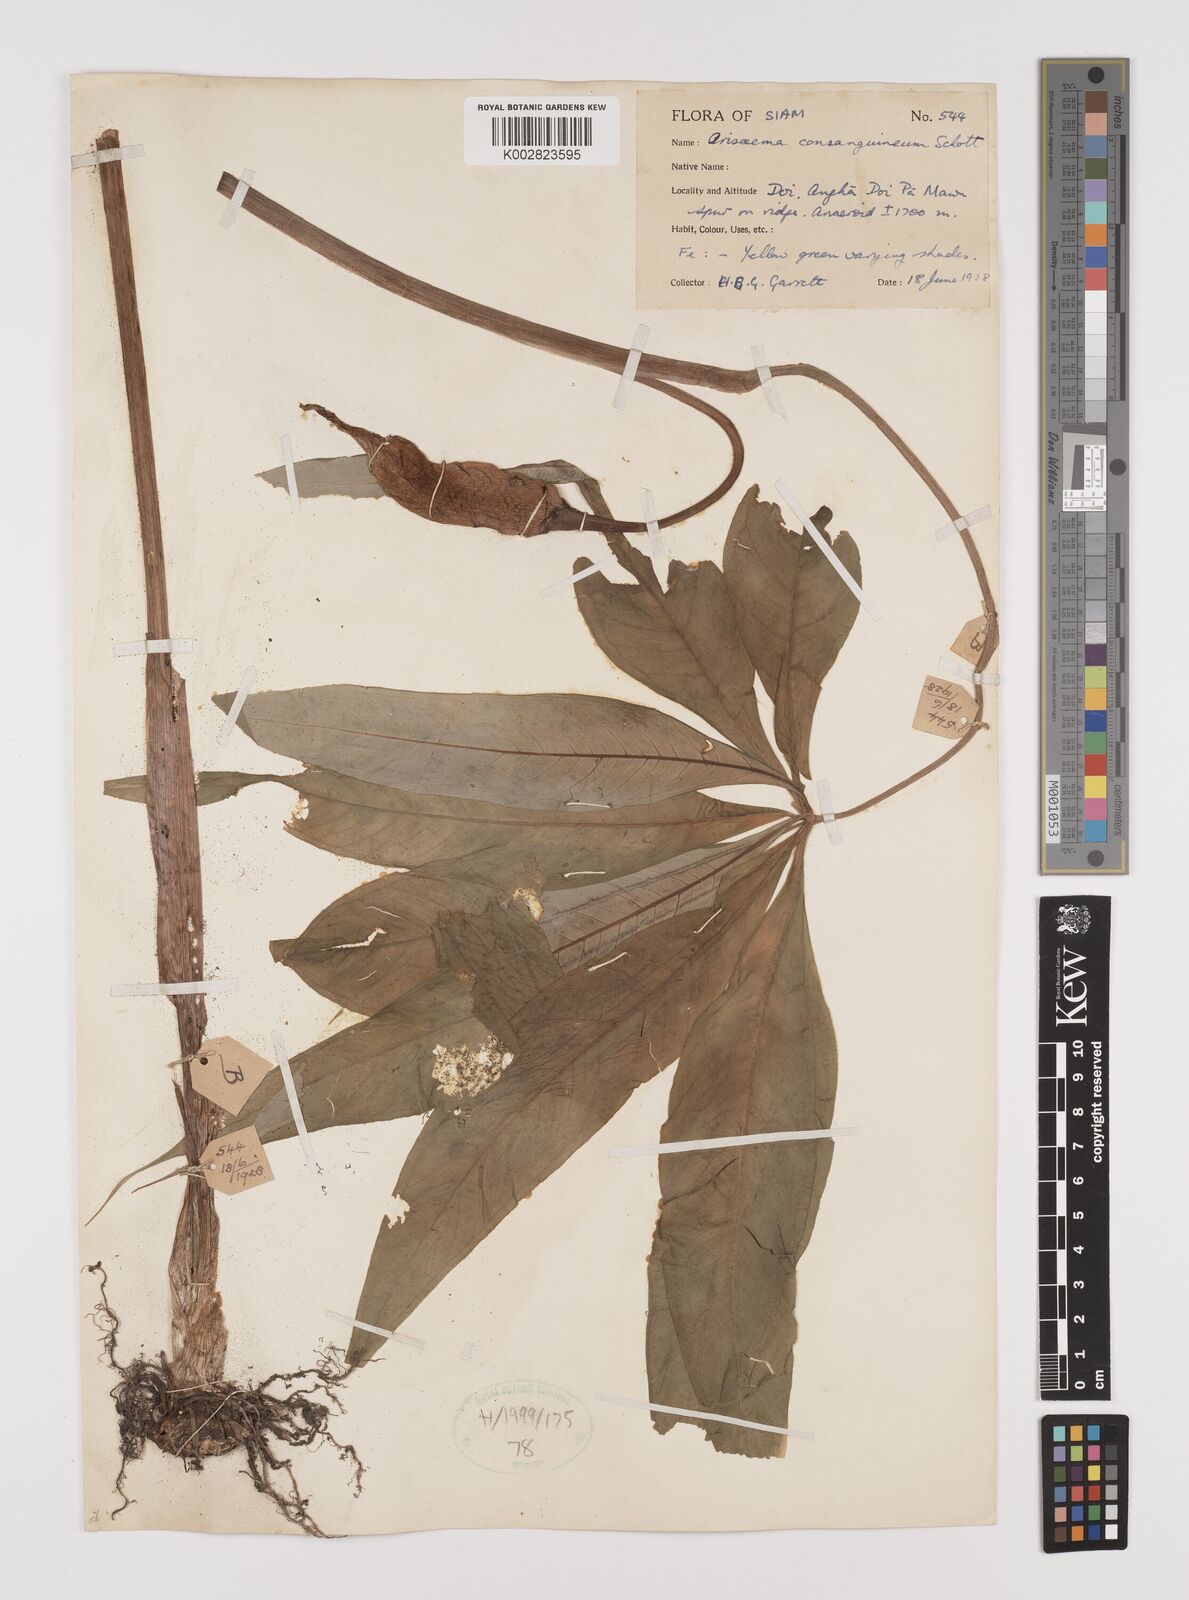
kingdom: Plantae
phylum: Tracheophyta
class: Liliopsida
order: Alismatales
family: Araceae
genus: Arisaema
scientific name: Arisaema consanguineum
